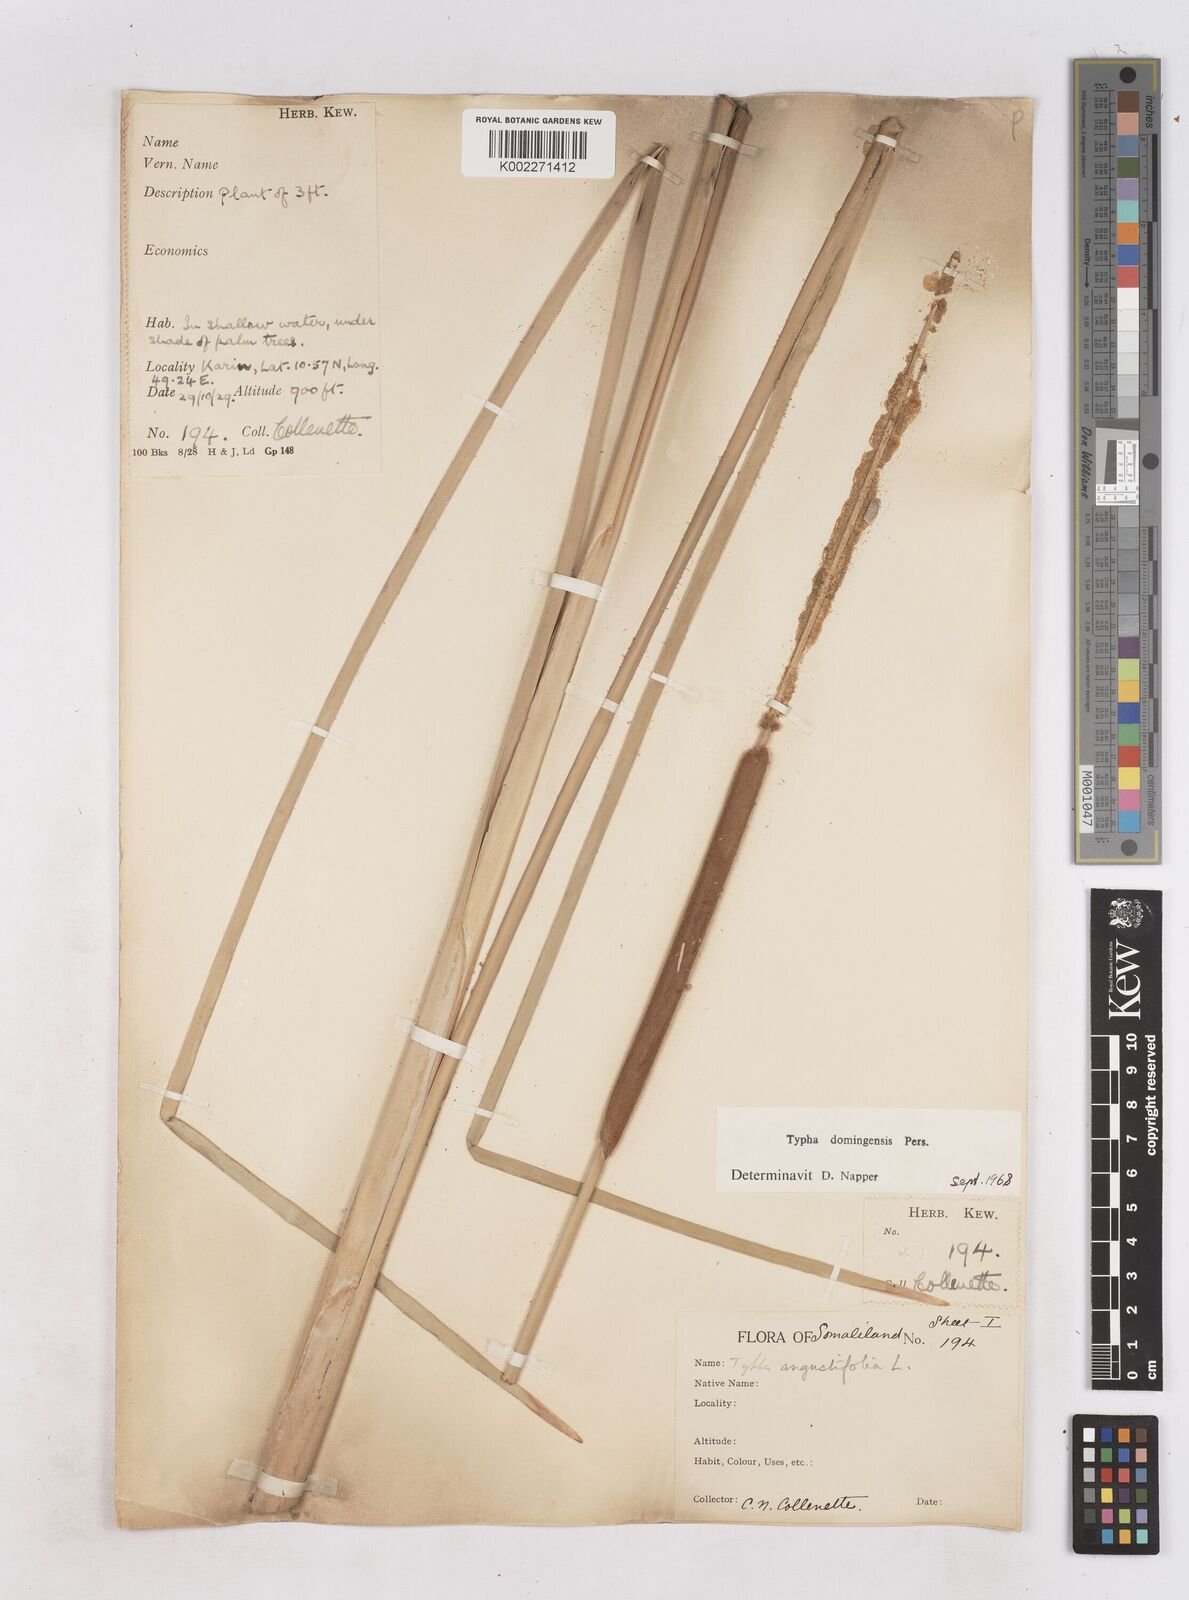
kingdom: Plantae
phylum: Tracheophyta
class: Liliopsida
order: Poales
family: Typhaceae
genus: Typha
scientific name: Typha domingensis
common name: Southern cattail
